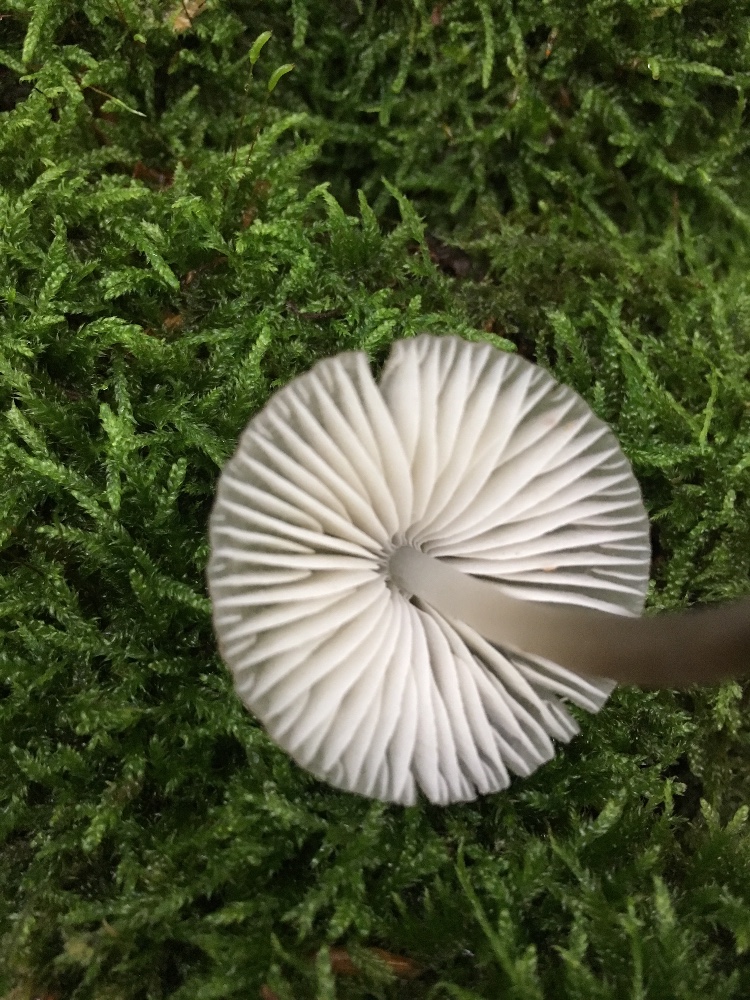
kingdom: Fungi
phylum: Basidiomycota
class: Agaricomycetes
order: Agaricales
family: Mycenaceae
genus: Mycena
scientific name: Mycena abramsii
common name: sommer-huesvamp
